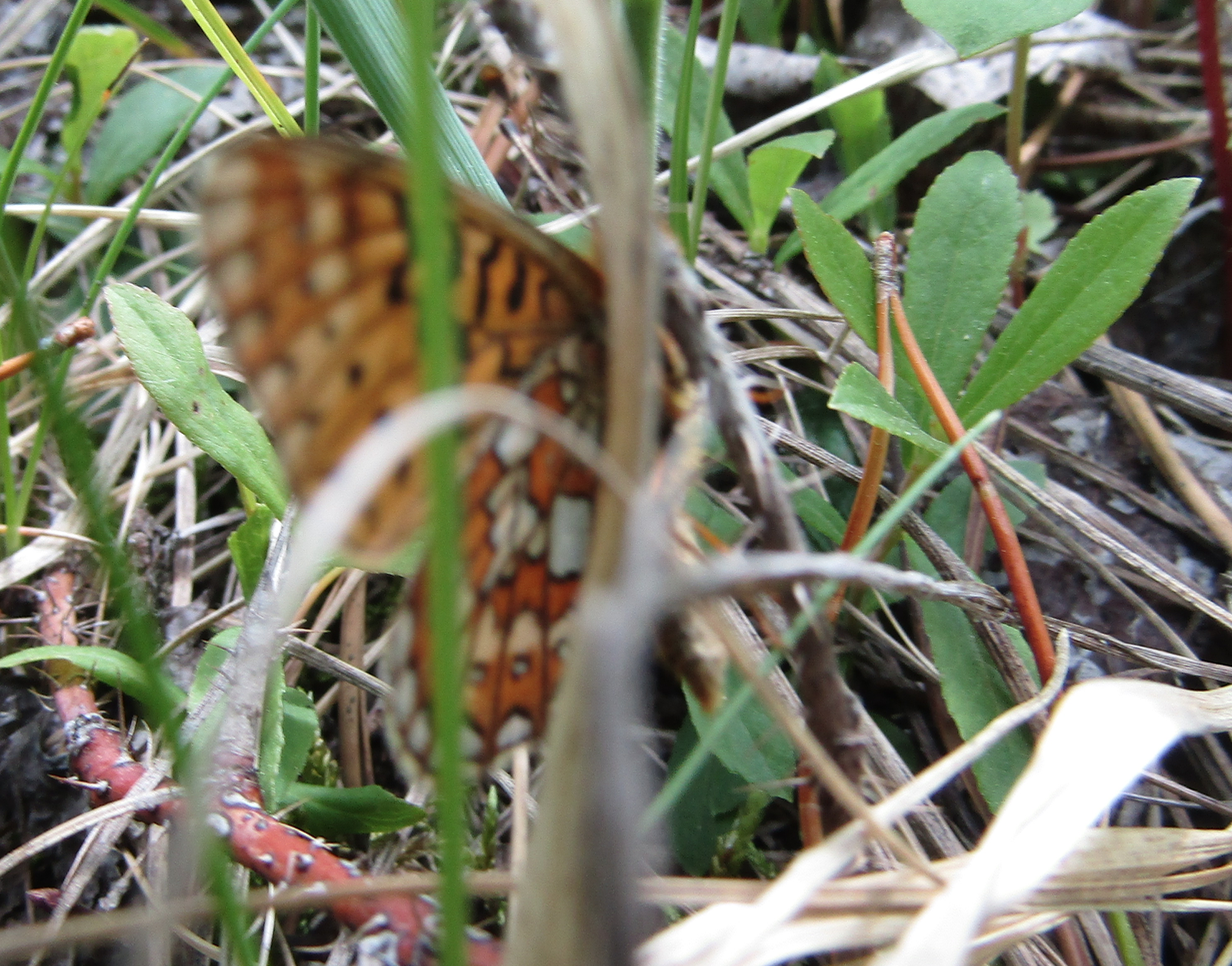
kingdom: Animalia
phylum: Arthropoda
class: Insecta
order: Lepidoptera
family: Nymphalidae
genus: Boloria
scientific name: Boloria eunomia
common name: Bog Fritillary
